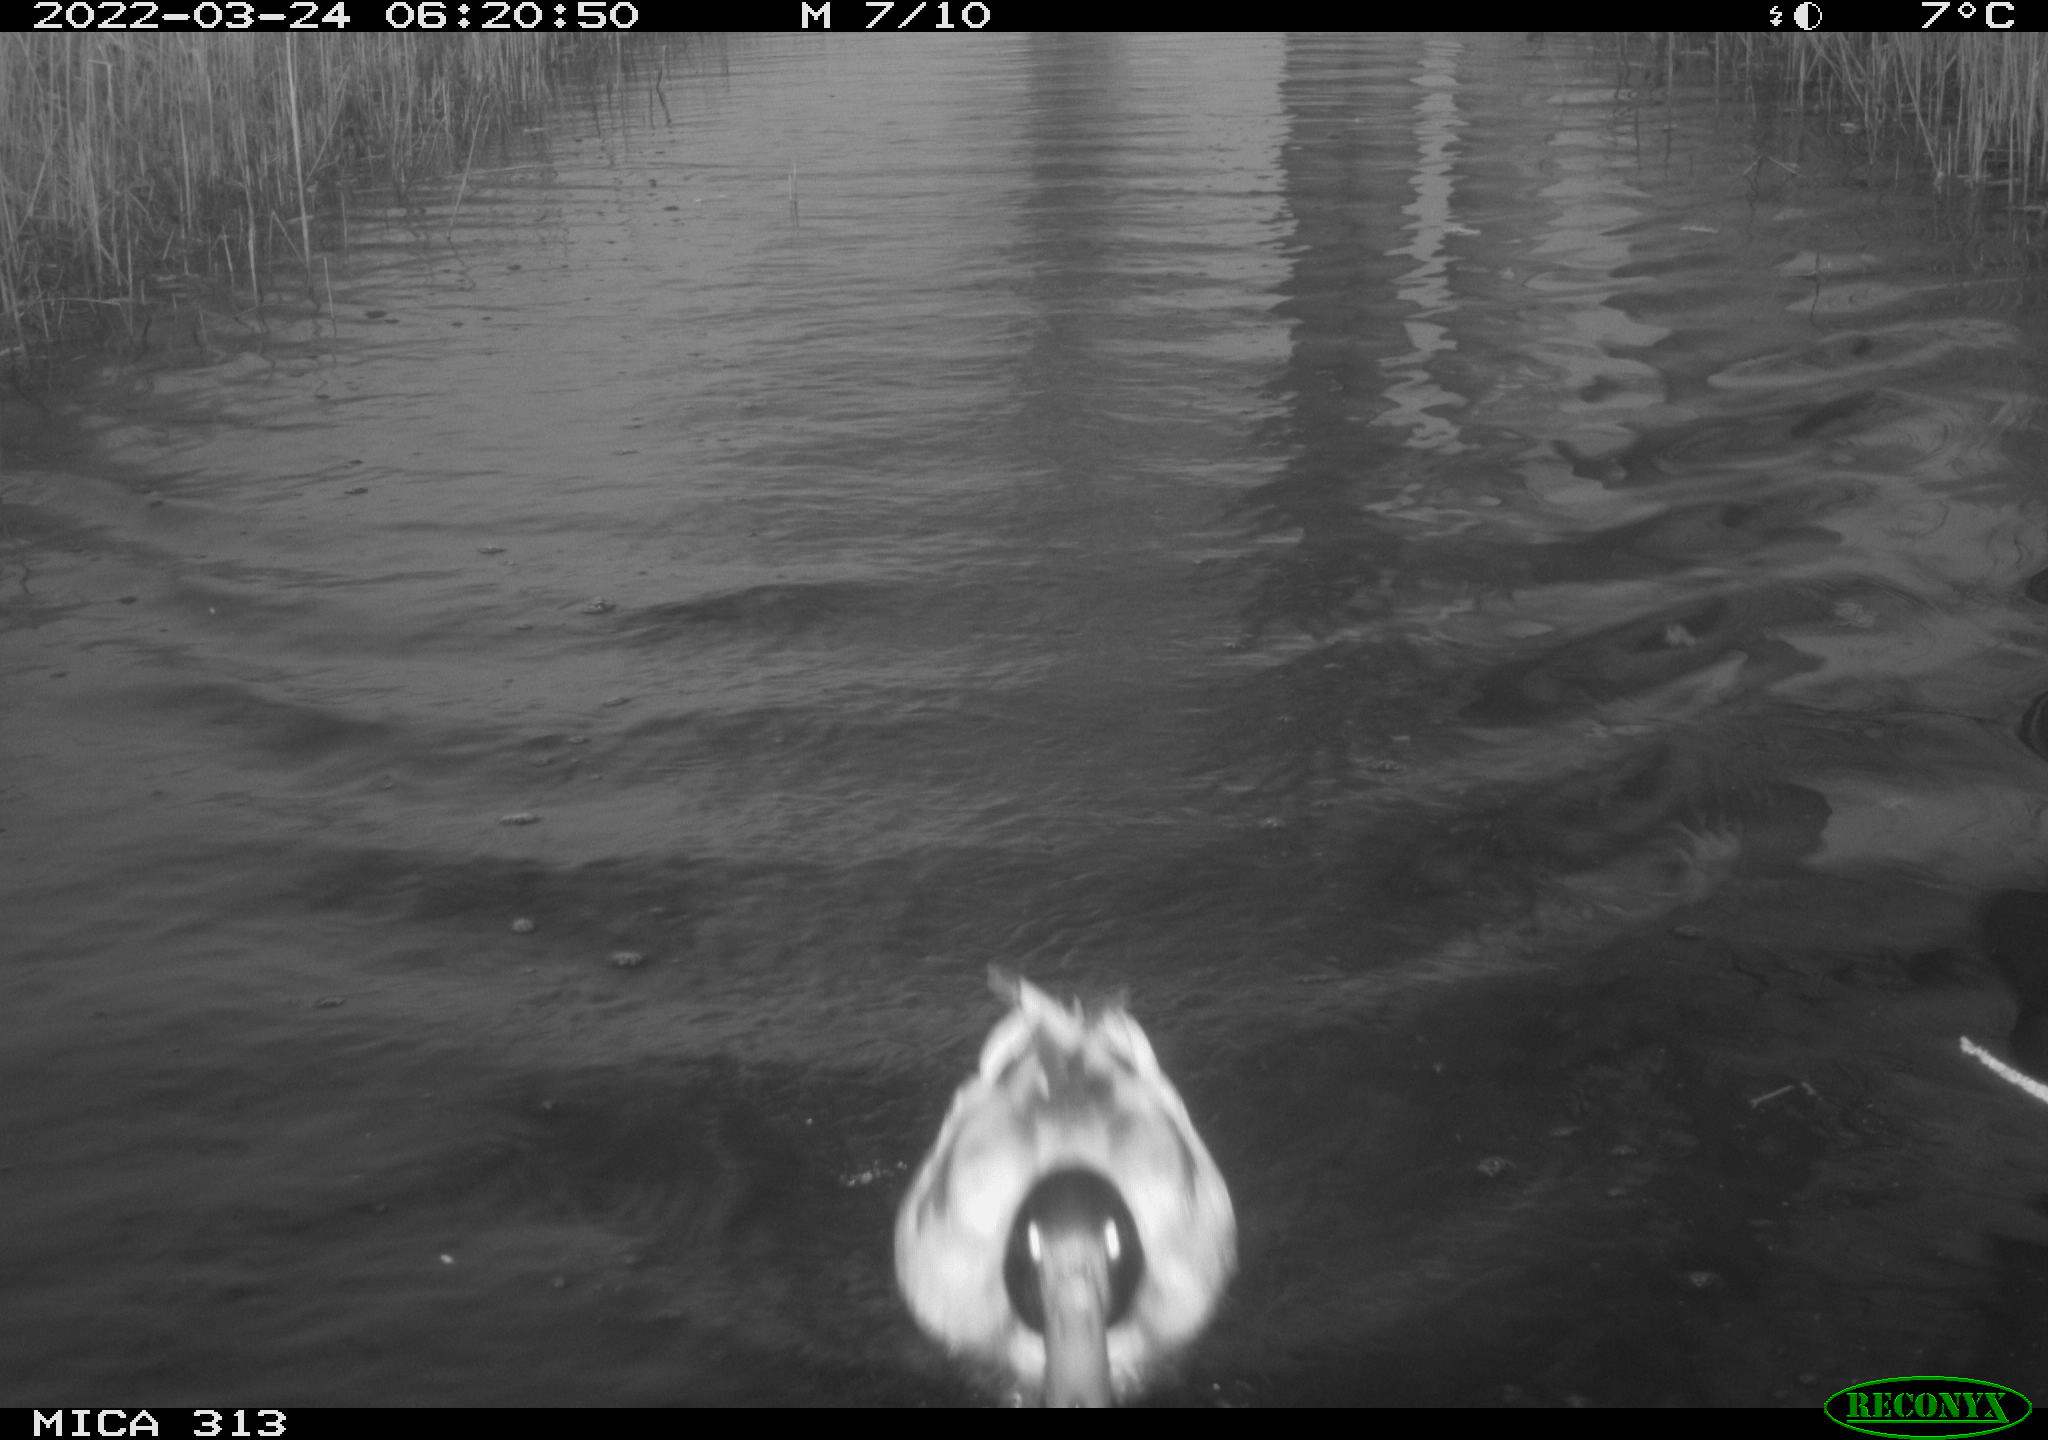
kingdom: Animalia
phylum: Chordata
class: Aves
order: Anseriformes
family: Anatidae
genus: Anas
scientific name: Anas platyrhynchos
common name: Mallard
